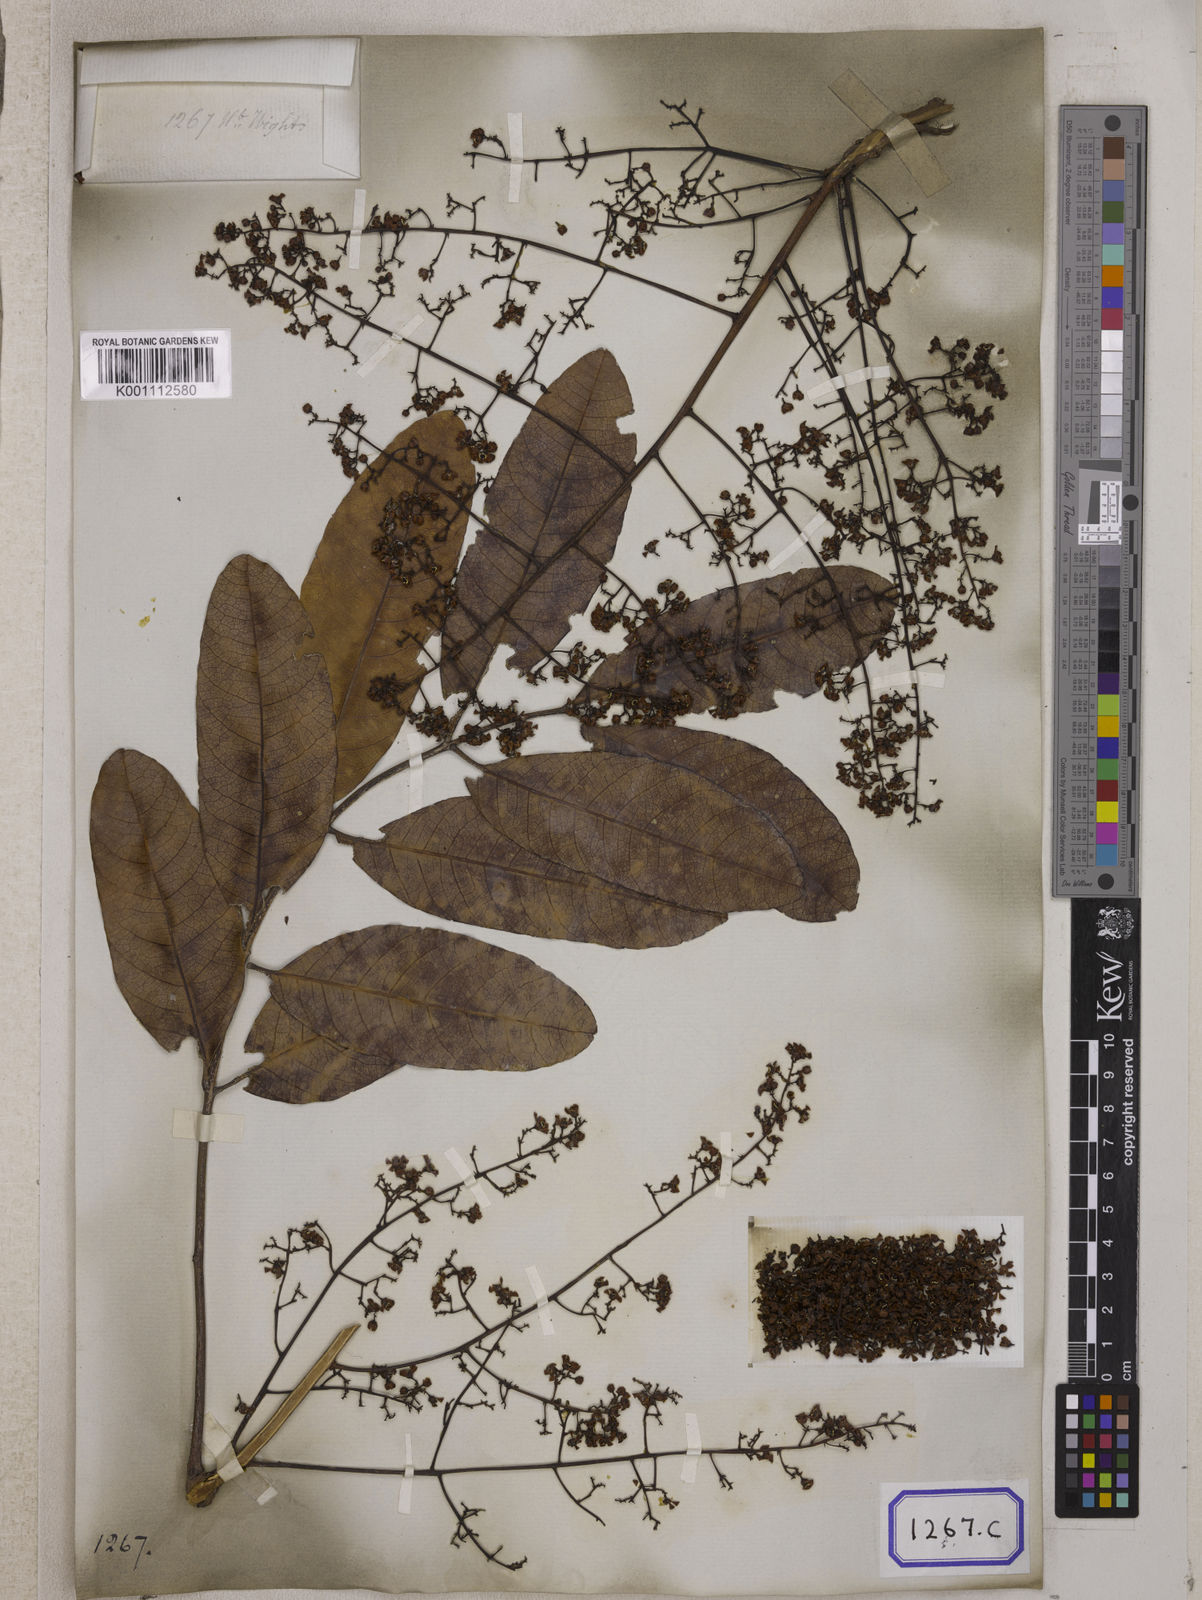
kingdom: Plantae
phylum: Tracheophyta
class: Magnoliopsida
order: Sapindales
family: Meliaceae
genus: Soymida
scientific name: Soymida febrifuga
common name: Indian-redwood
